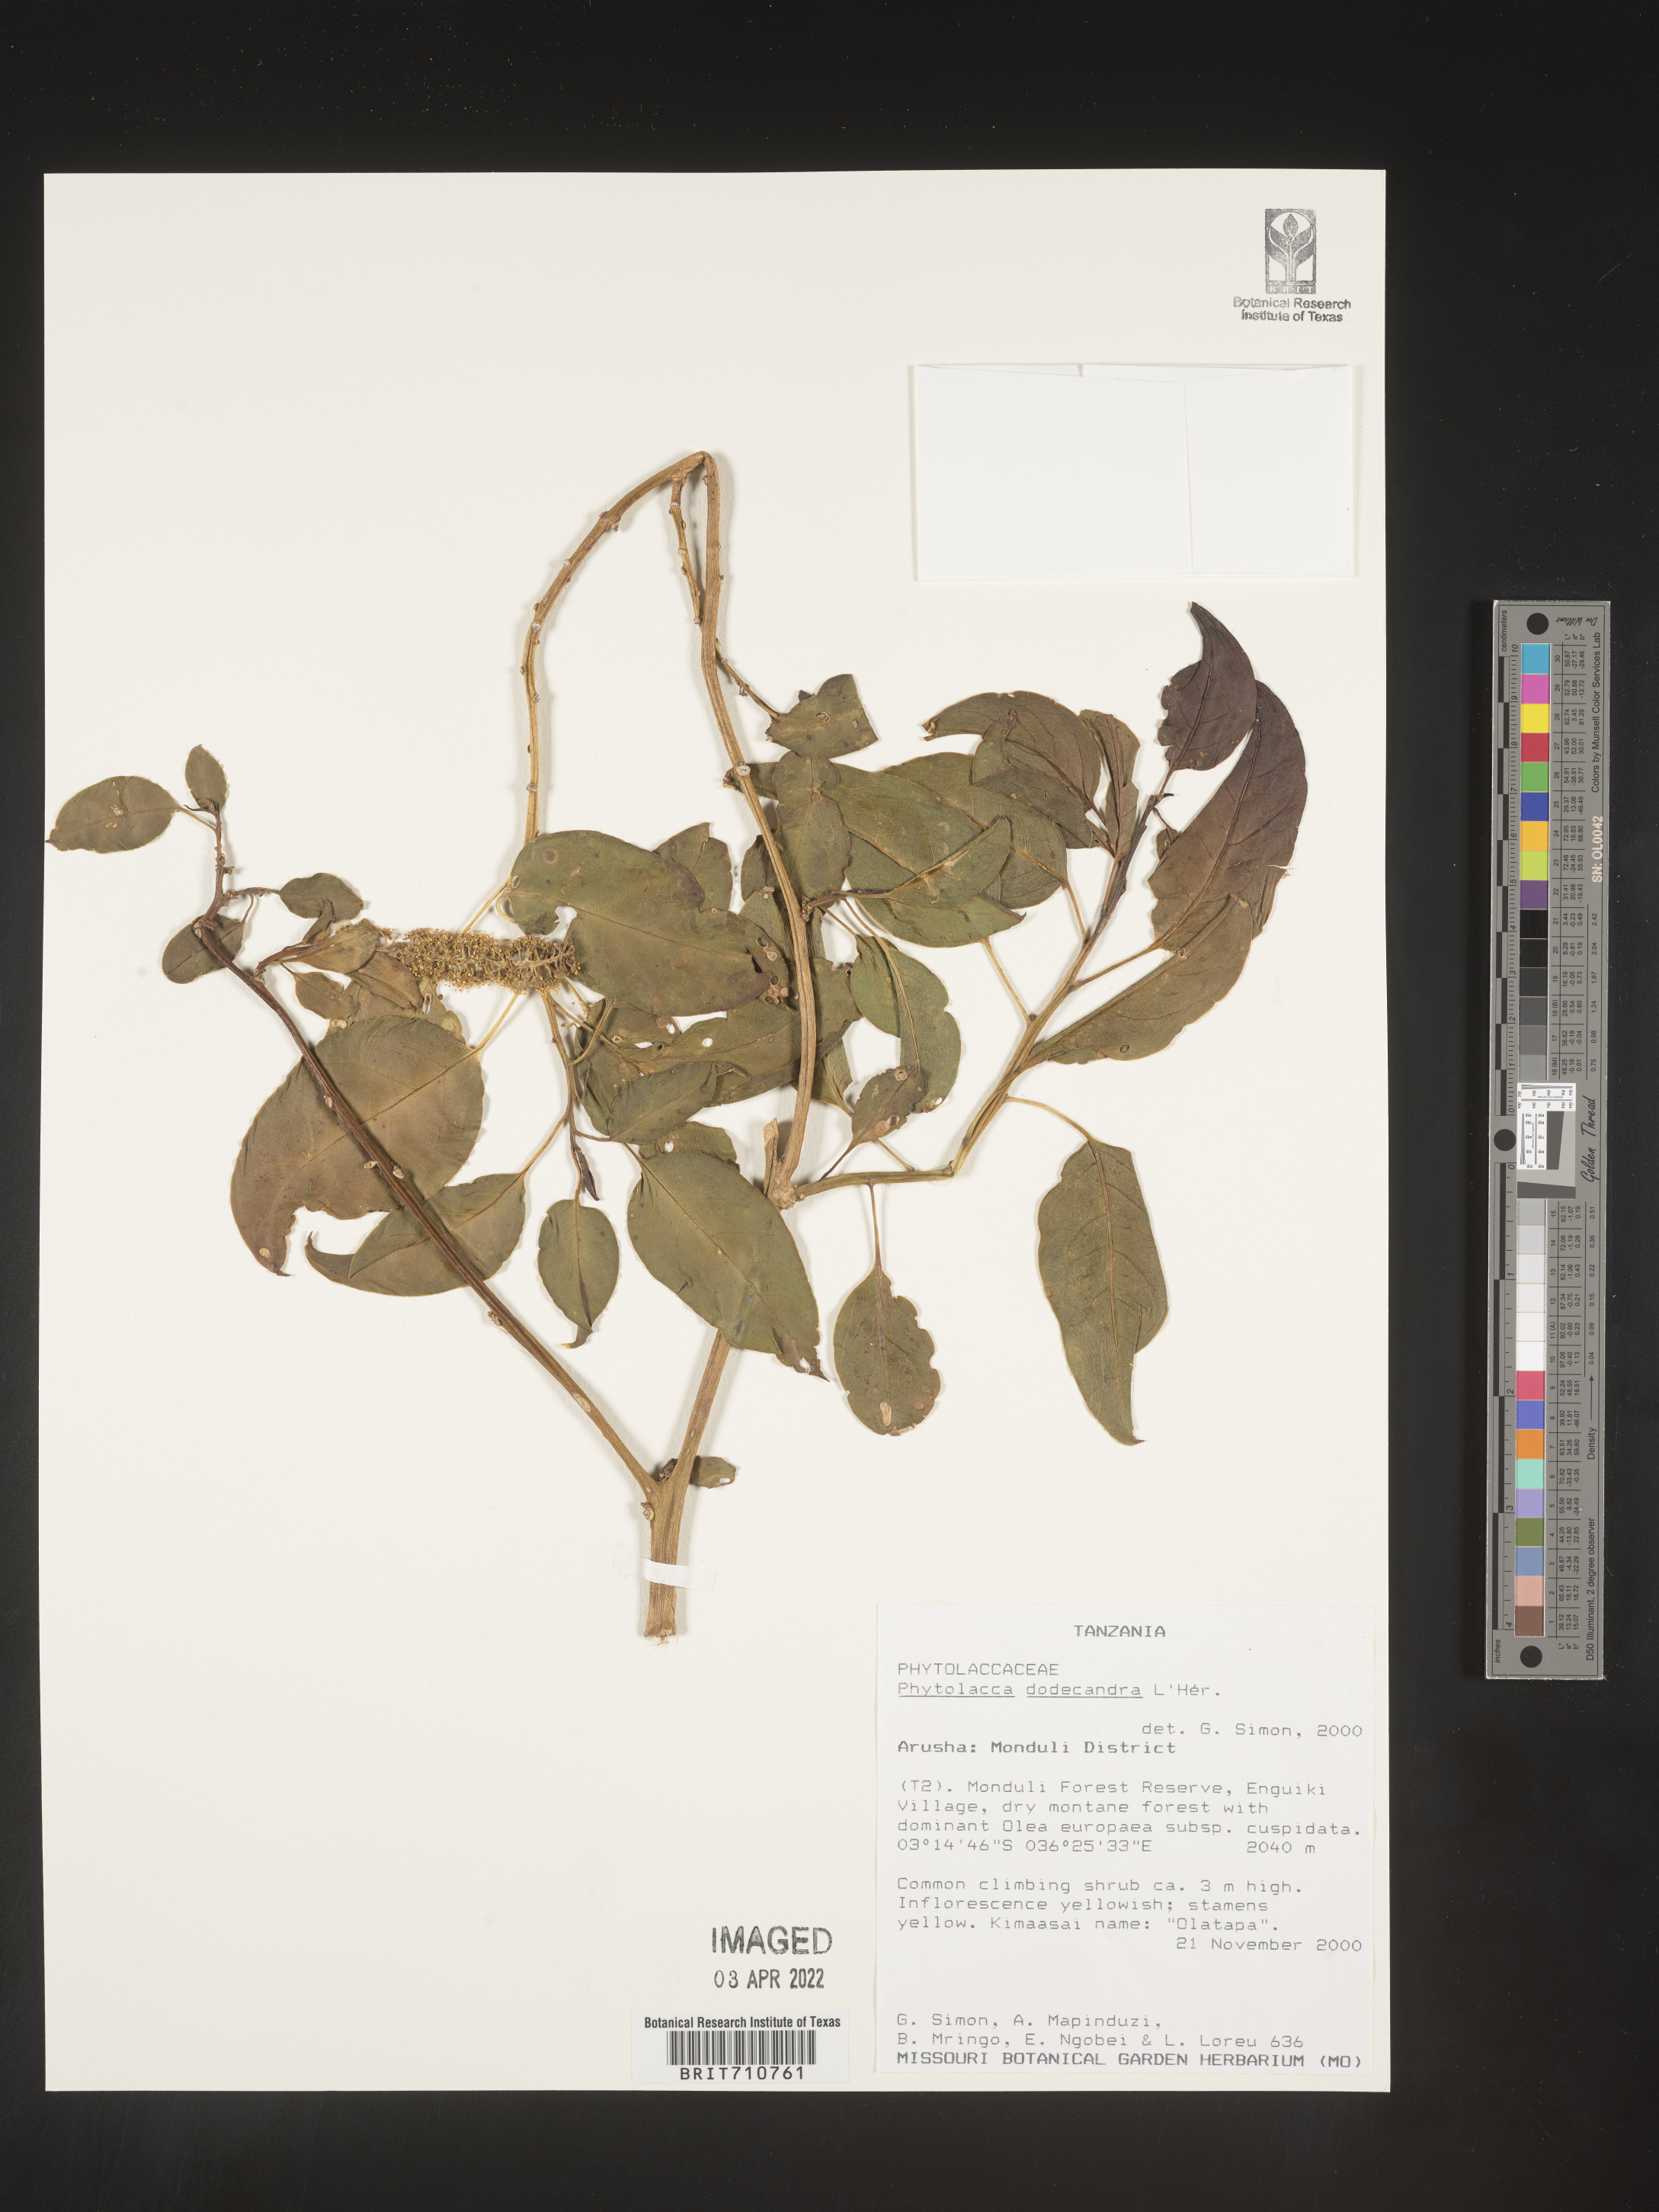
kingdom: Plantae
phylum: Tracheophyta
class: Magnoliopsida
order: Caryophyllales
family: Phytolaccaceae
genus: Phytolacca
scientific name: Phytolacca
